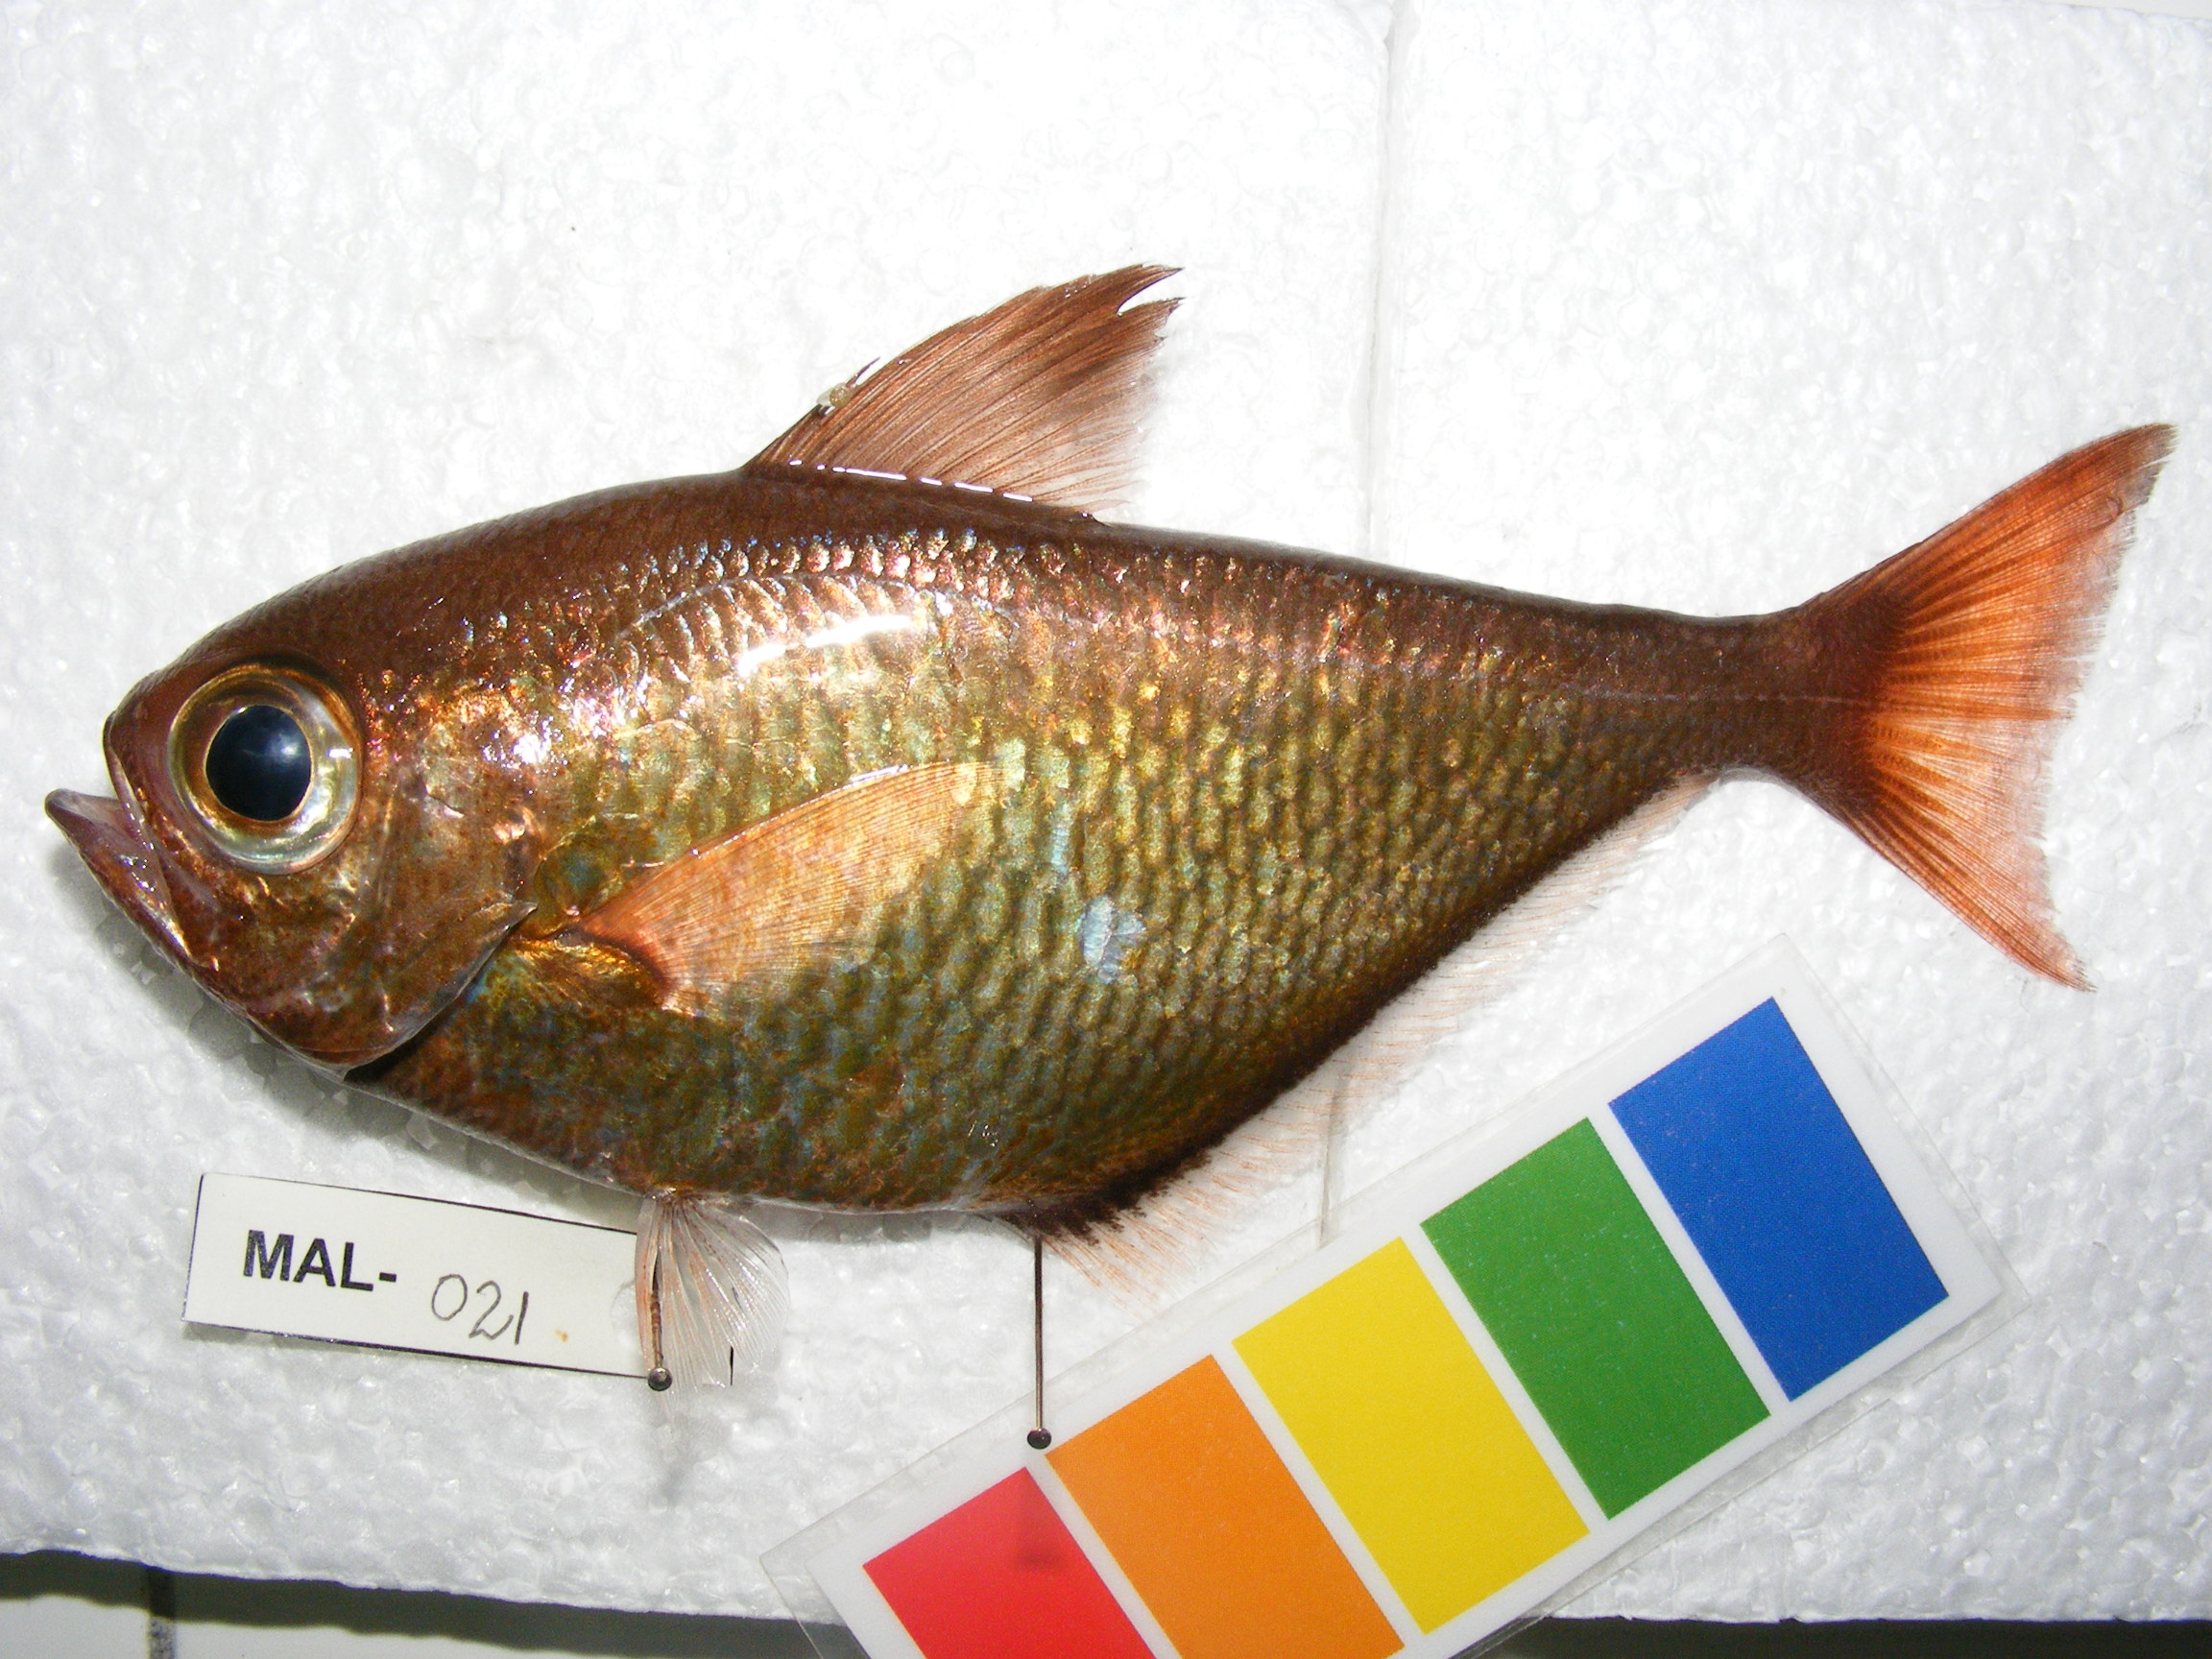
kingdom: Animalia
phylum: Chordata
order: Perciformes
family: Pempheridae
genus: Pempheris
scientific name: Pempheris hadra
